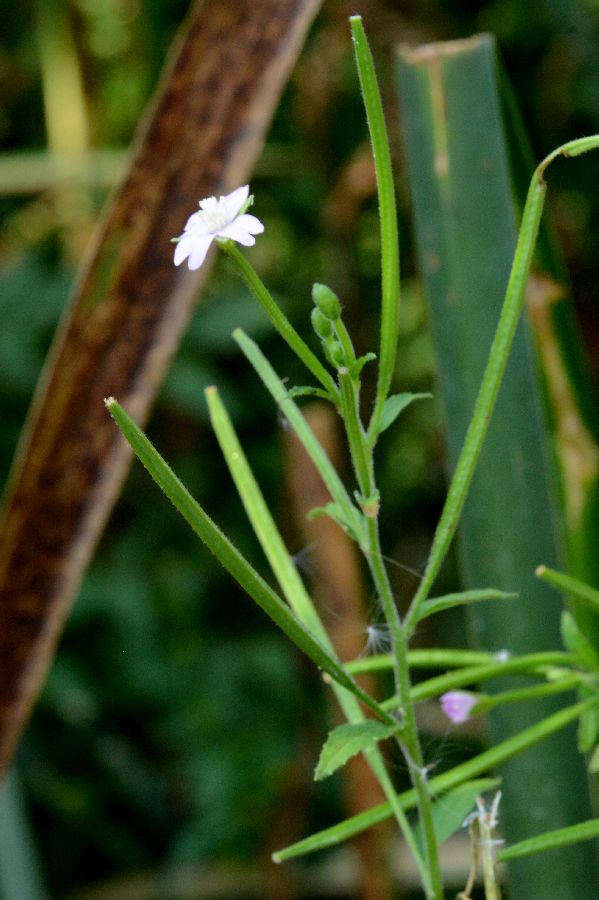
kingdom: Plantae
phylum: Tracheophyta
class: Magnoliopsida
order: Myrtales
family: Onagraceae
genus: Epilobium
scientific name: Epilobium parviflorum
